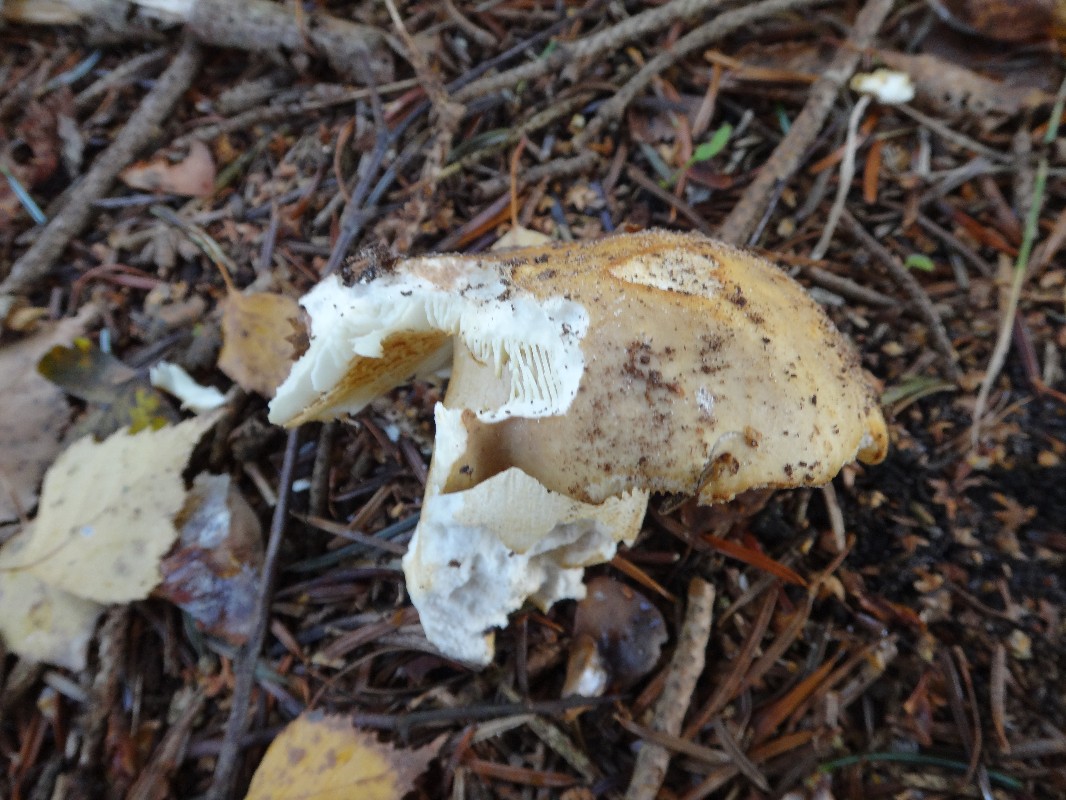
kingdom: Fungi
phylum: Basidiomycota
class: Agaricomycetes
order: Russulales
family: Russulaceae
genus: Russula
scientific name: Russula ochroleuca
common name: okkergul skørhat
